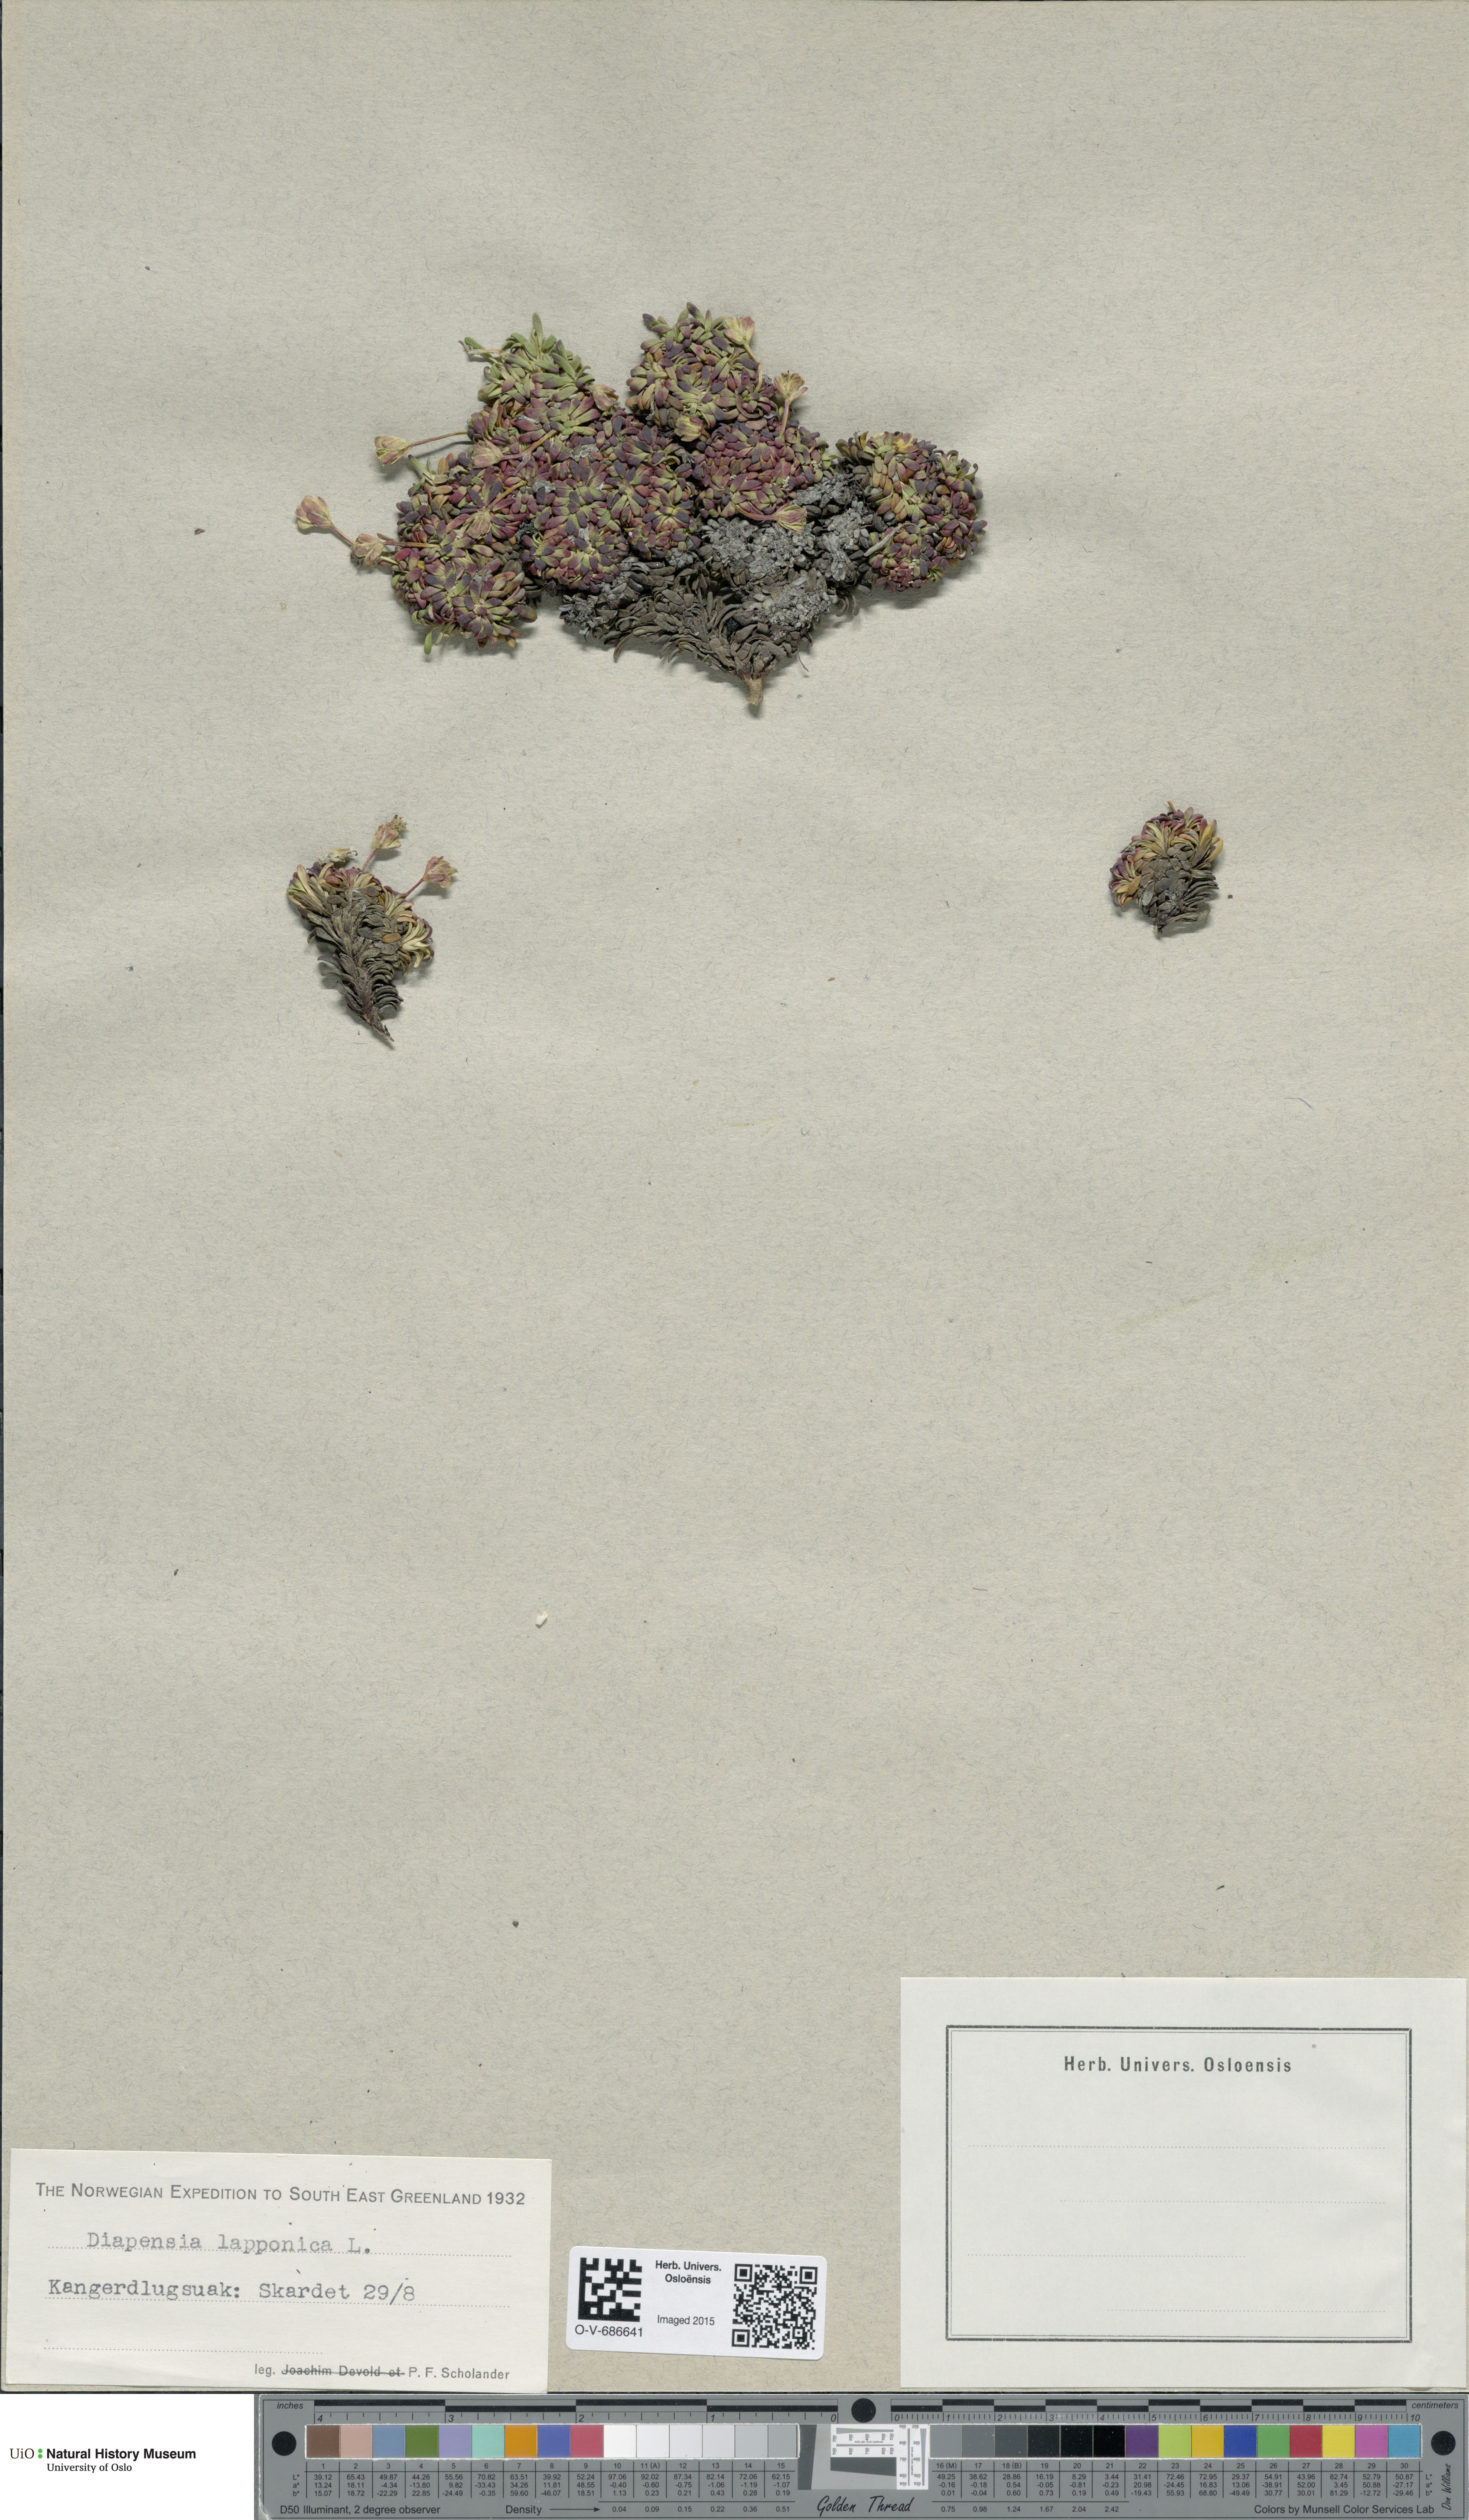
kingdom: Plantae
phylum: Tracheophyta
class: Magnoliopsida
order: Ericales
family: Diapensiaceae
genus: Diapensia
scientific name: Diapensia lapponica
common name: Diapensia
